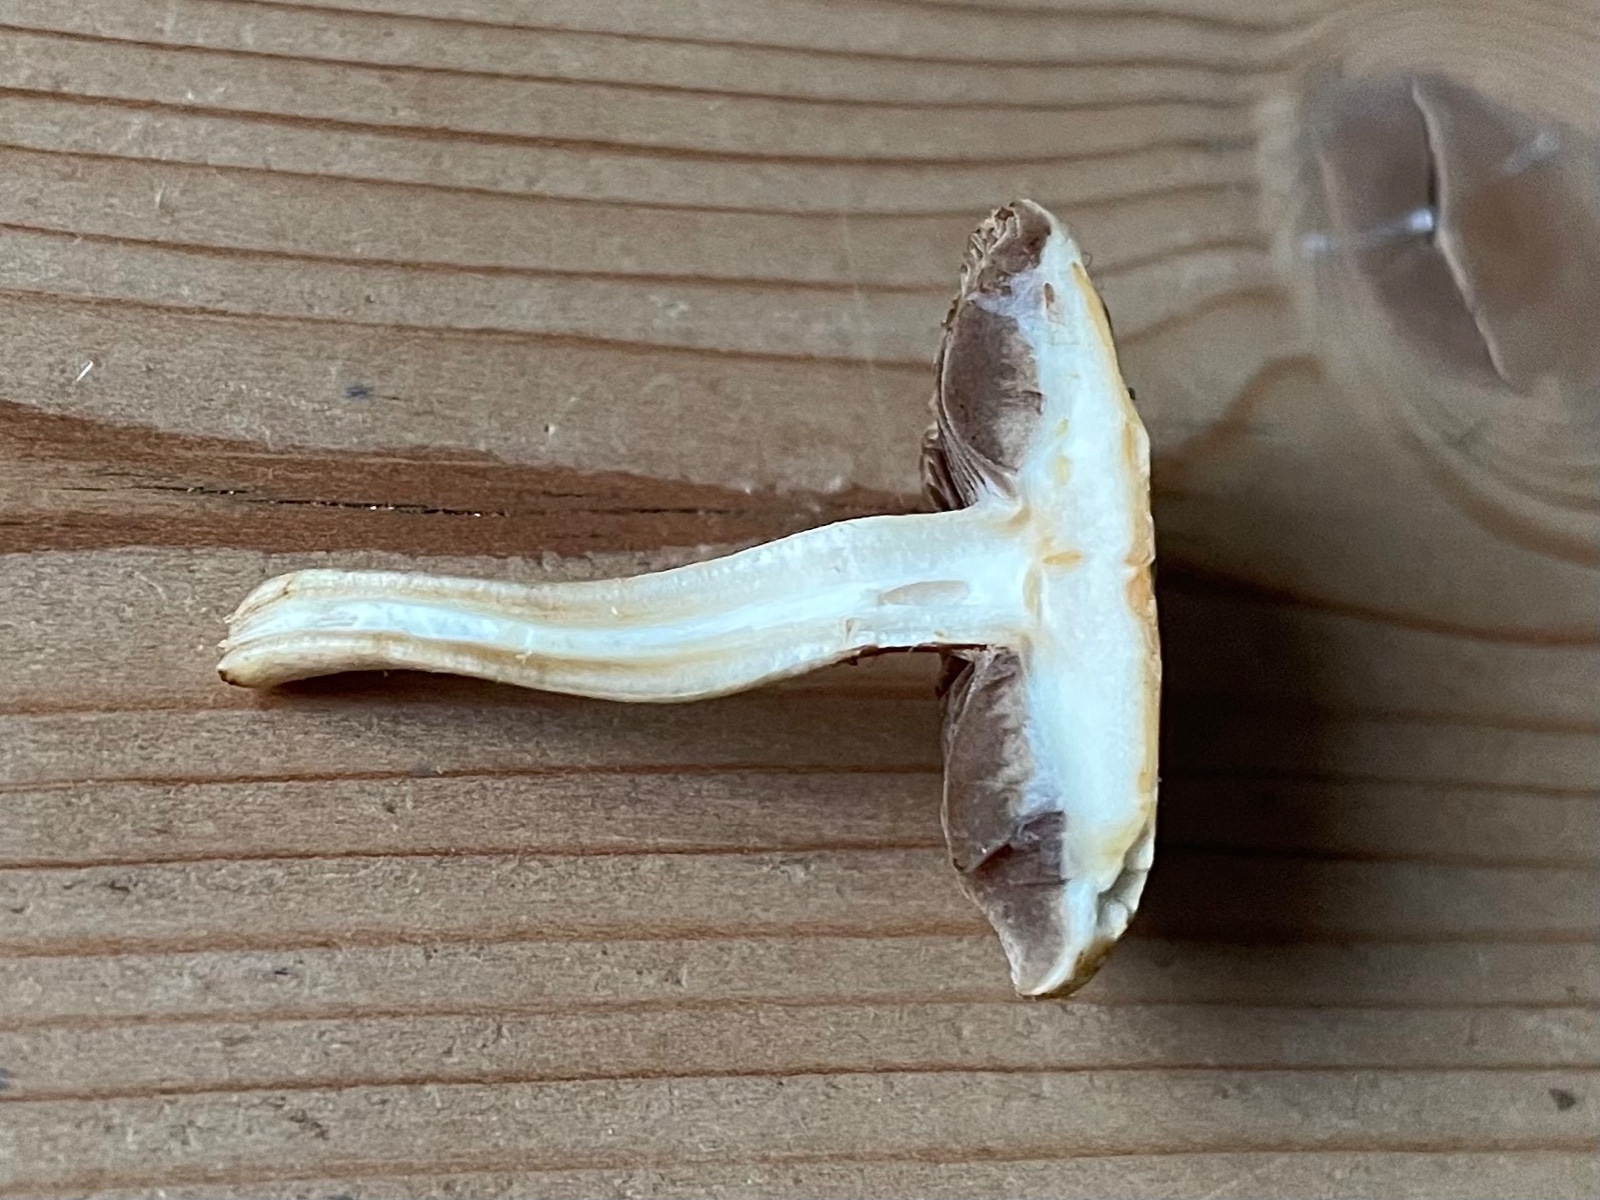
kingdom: Fungi
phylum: Basidiomycota
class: Agaricomycetes
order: Agaricales
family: Strophariaceae
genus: Agrocybe
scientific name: Agrocybe
